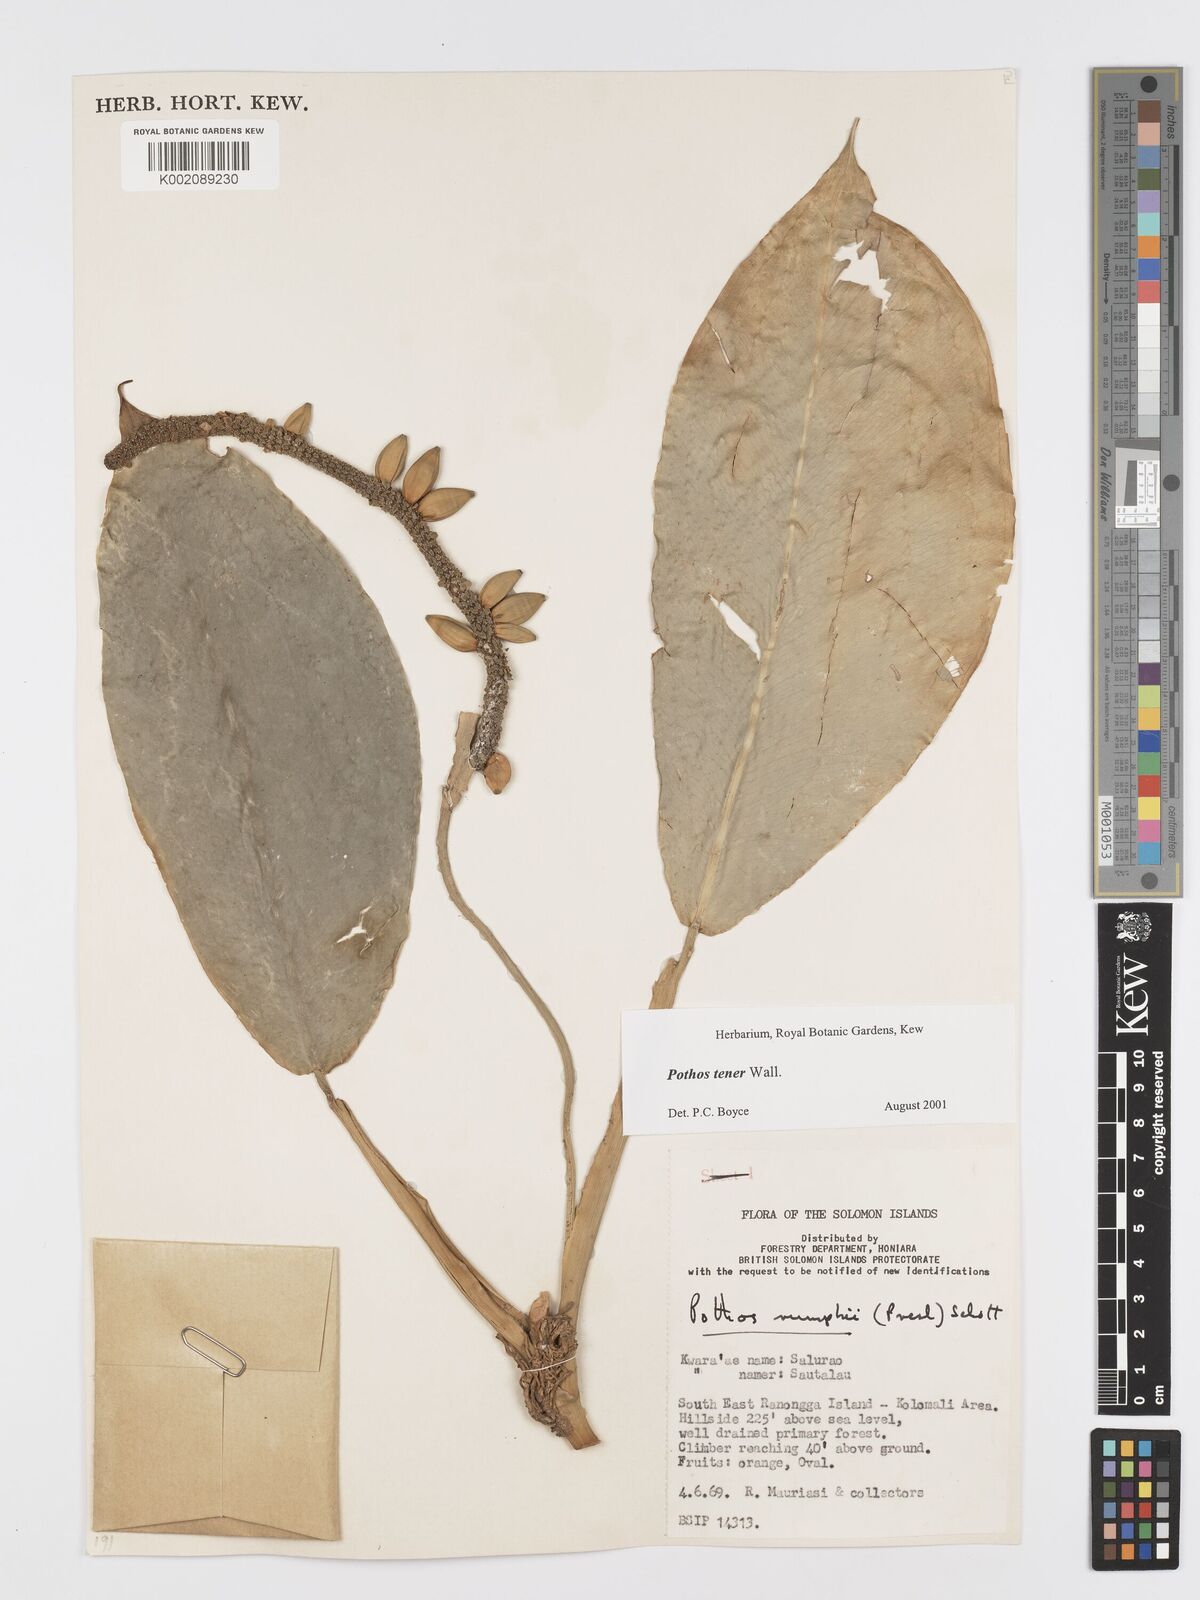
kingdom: Plantae
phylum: Tracheophyta
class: Liliopsida
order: Alismatales
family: Araceae
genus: Pothos
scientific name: Pothos tener
